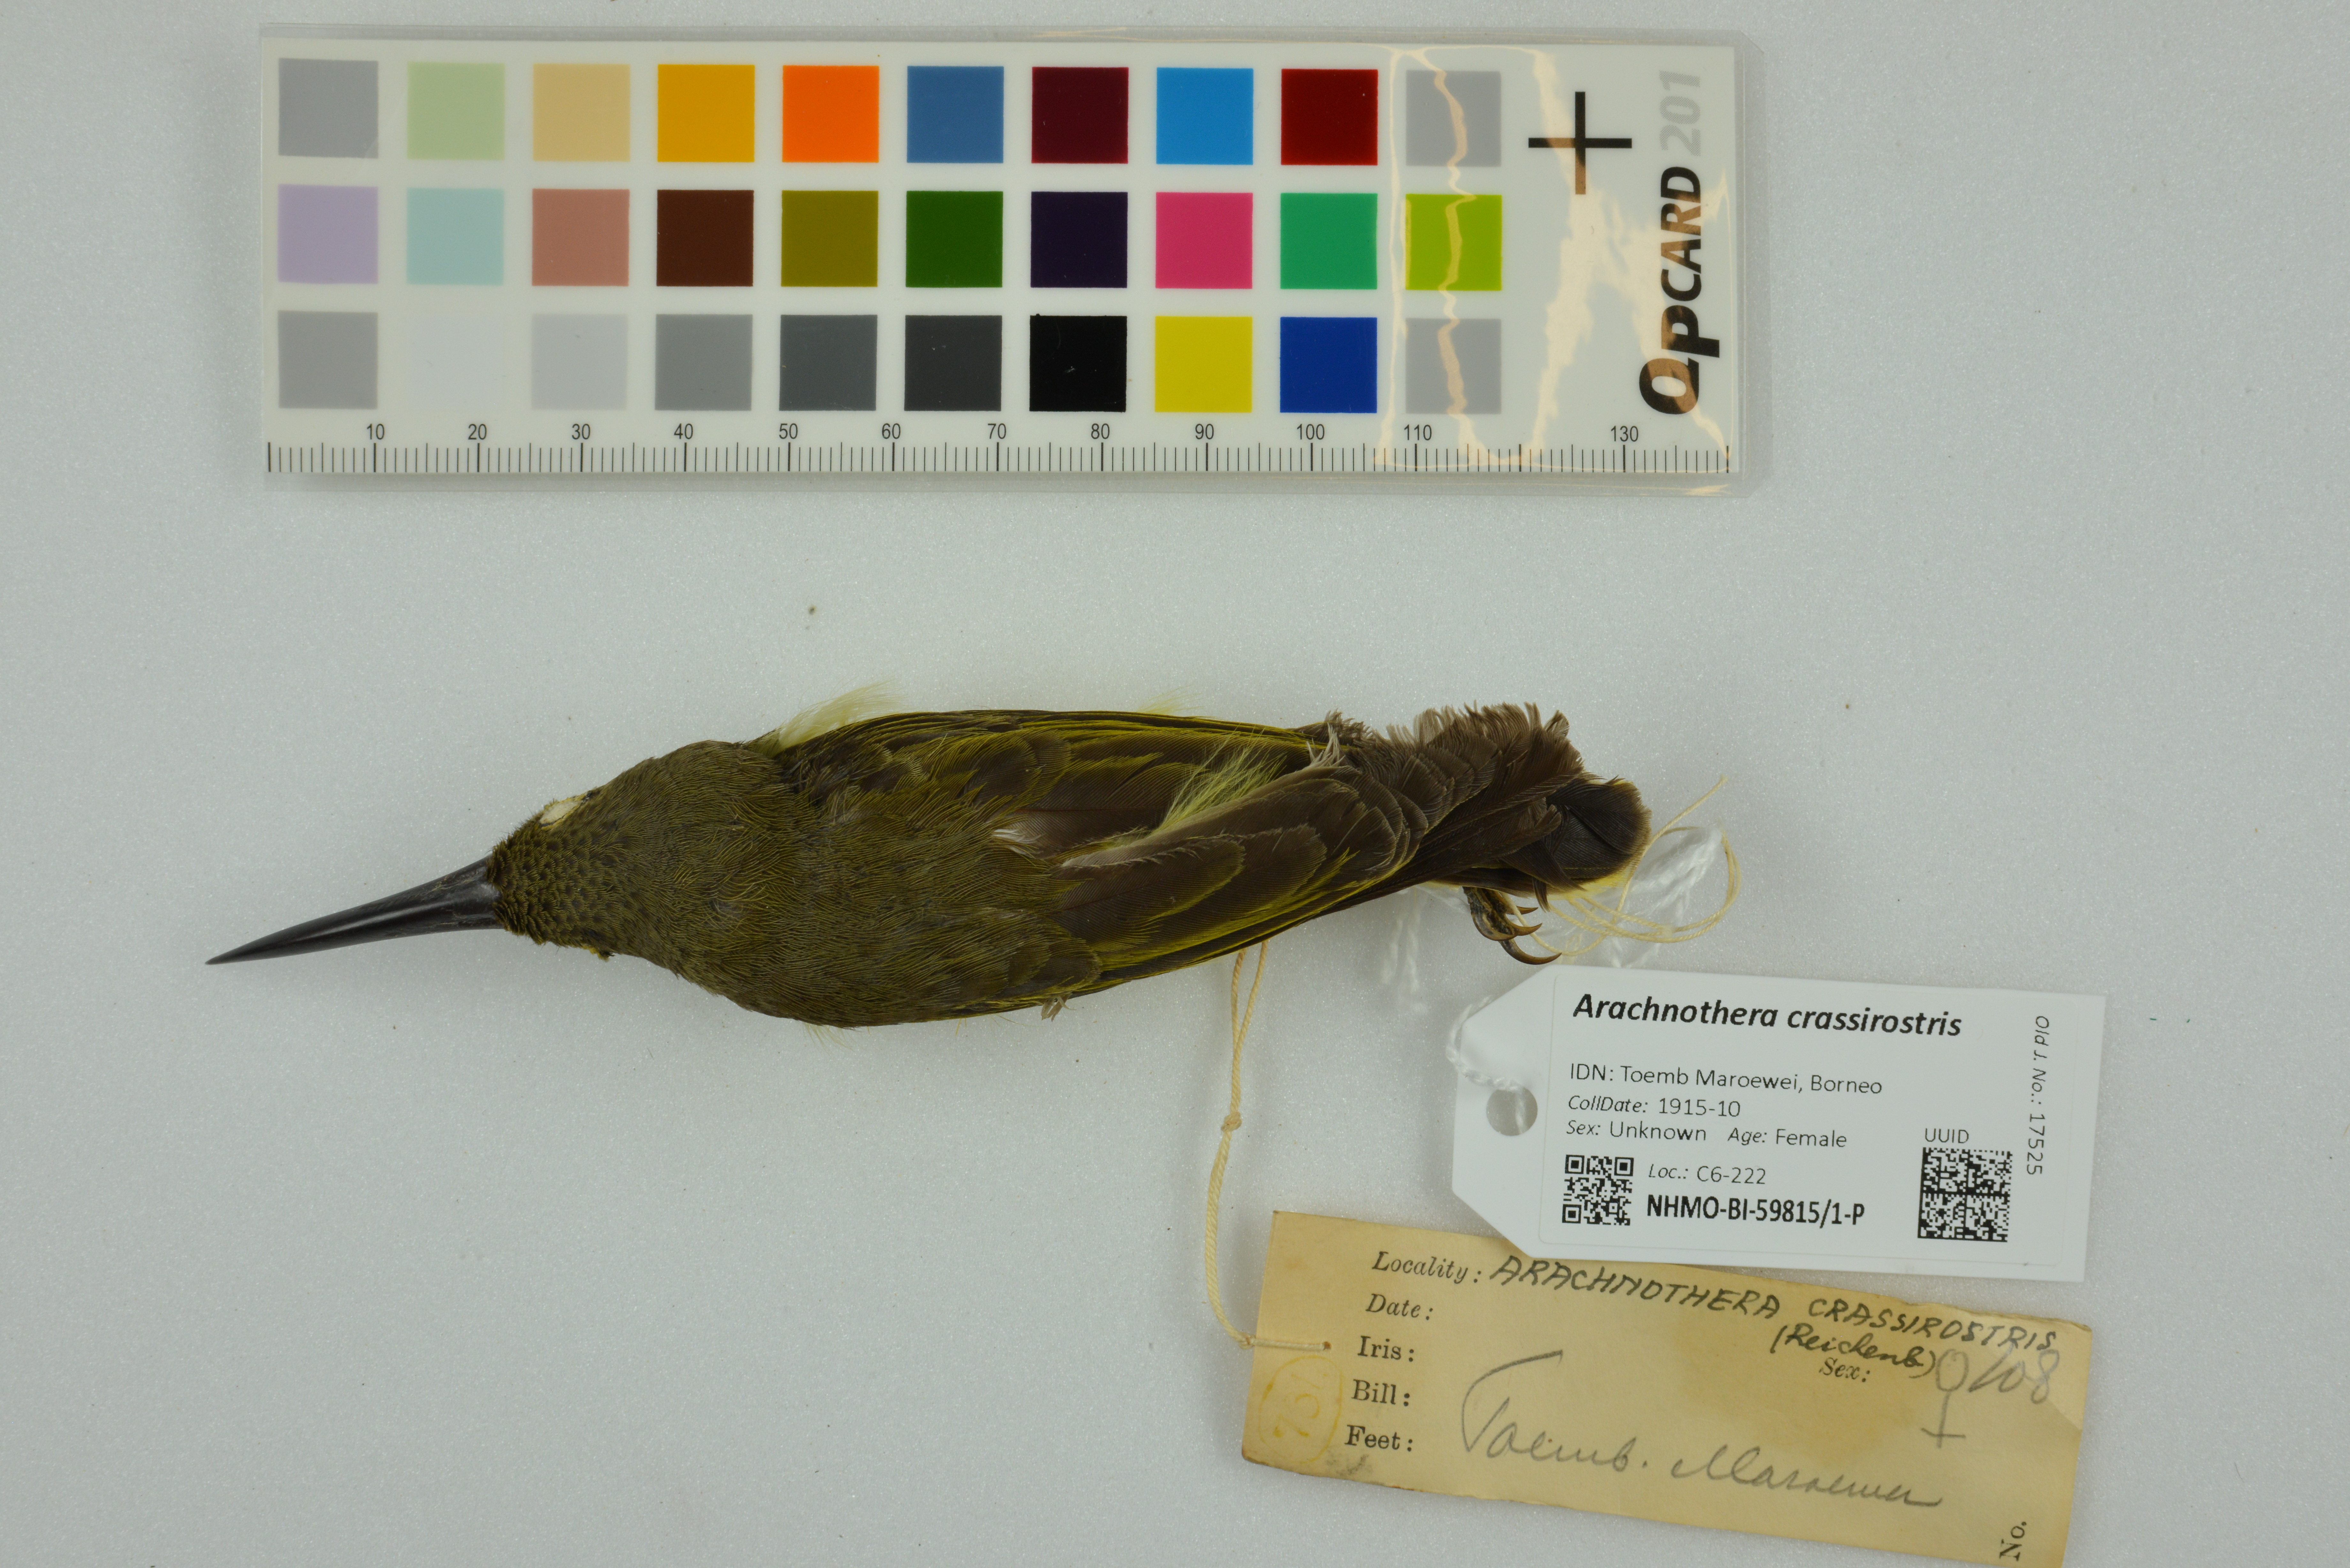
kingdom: Animalia
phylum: Chordata
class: Aves
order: Passeriformes
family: Nectariniidae
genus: Arachnothera
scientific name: Arachnothera crassirostris
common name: Thick-billed spiderhunter
